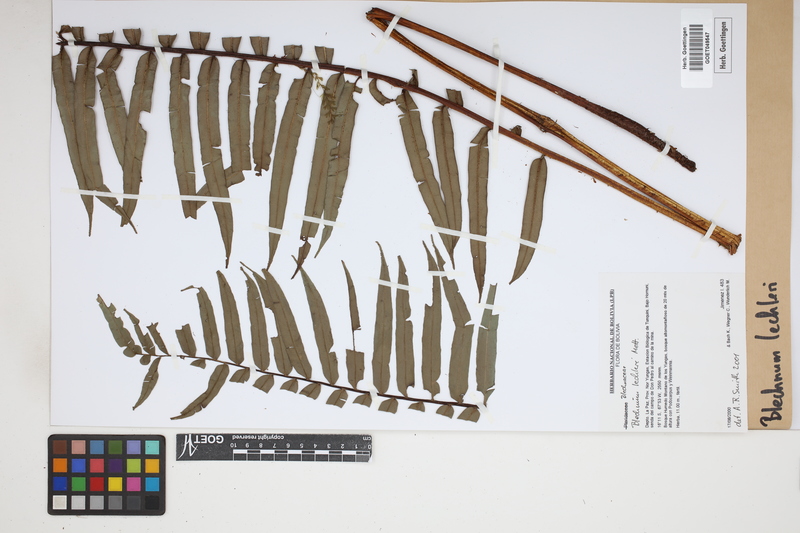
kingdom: Plantae
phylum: Tracheophyta
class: Polypodiopsida
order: Polypodiales
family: Blechnaceae
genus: Parablechnum
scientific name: Parablechnum lechleri
